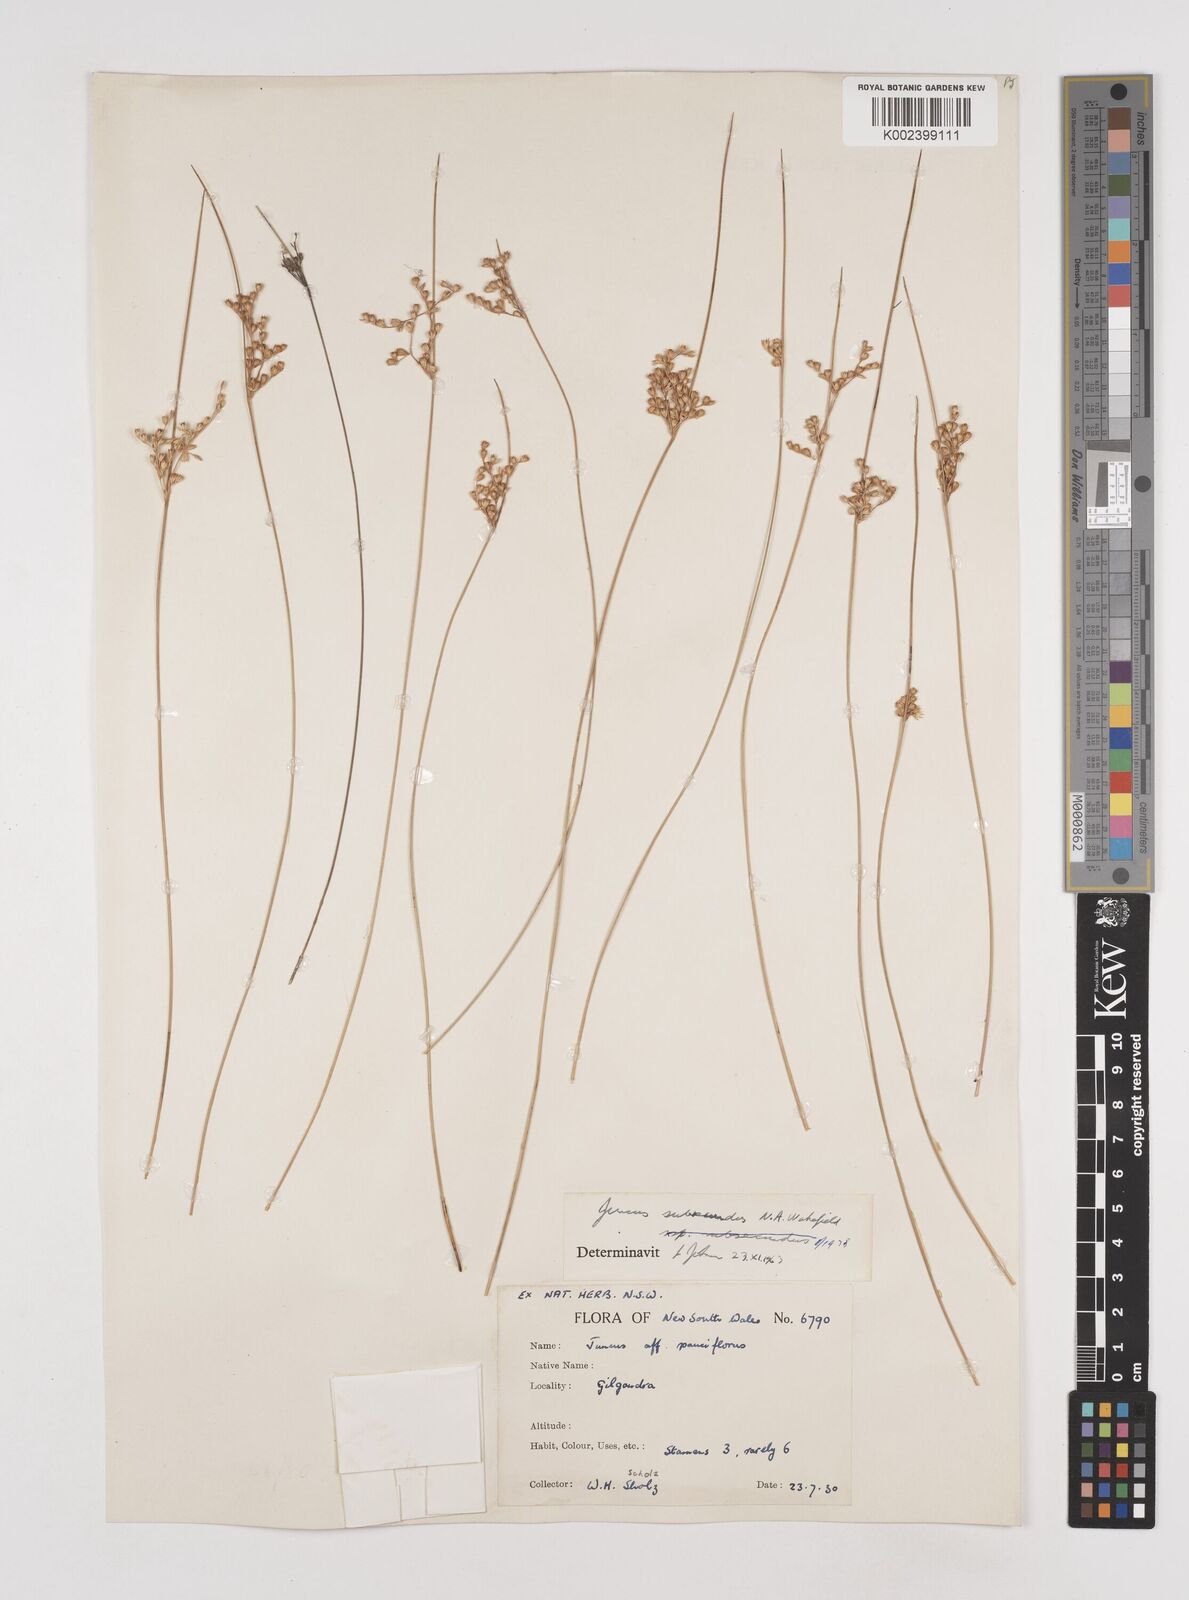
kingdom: Plantae
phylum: Tracheophyta
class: Liliopsida
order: Poales
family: Juncaceae
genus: Juncus
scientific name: Juncus subsecundus
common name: Fingered rush
